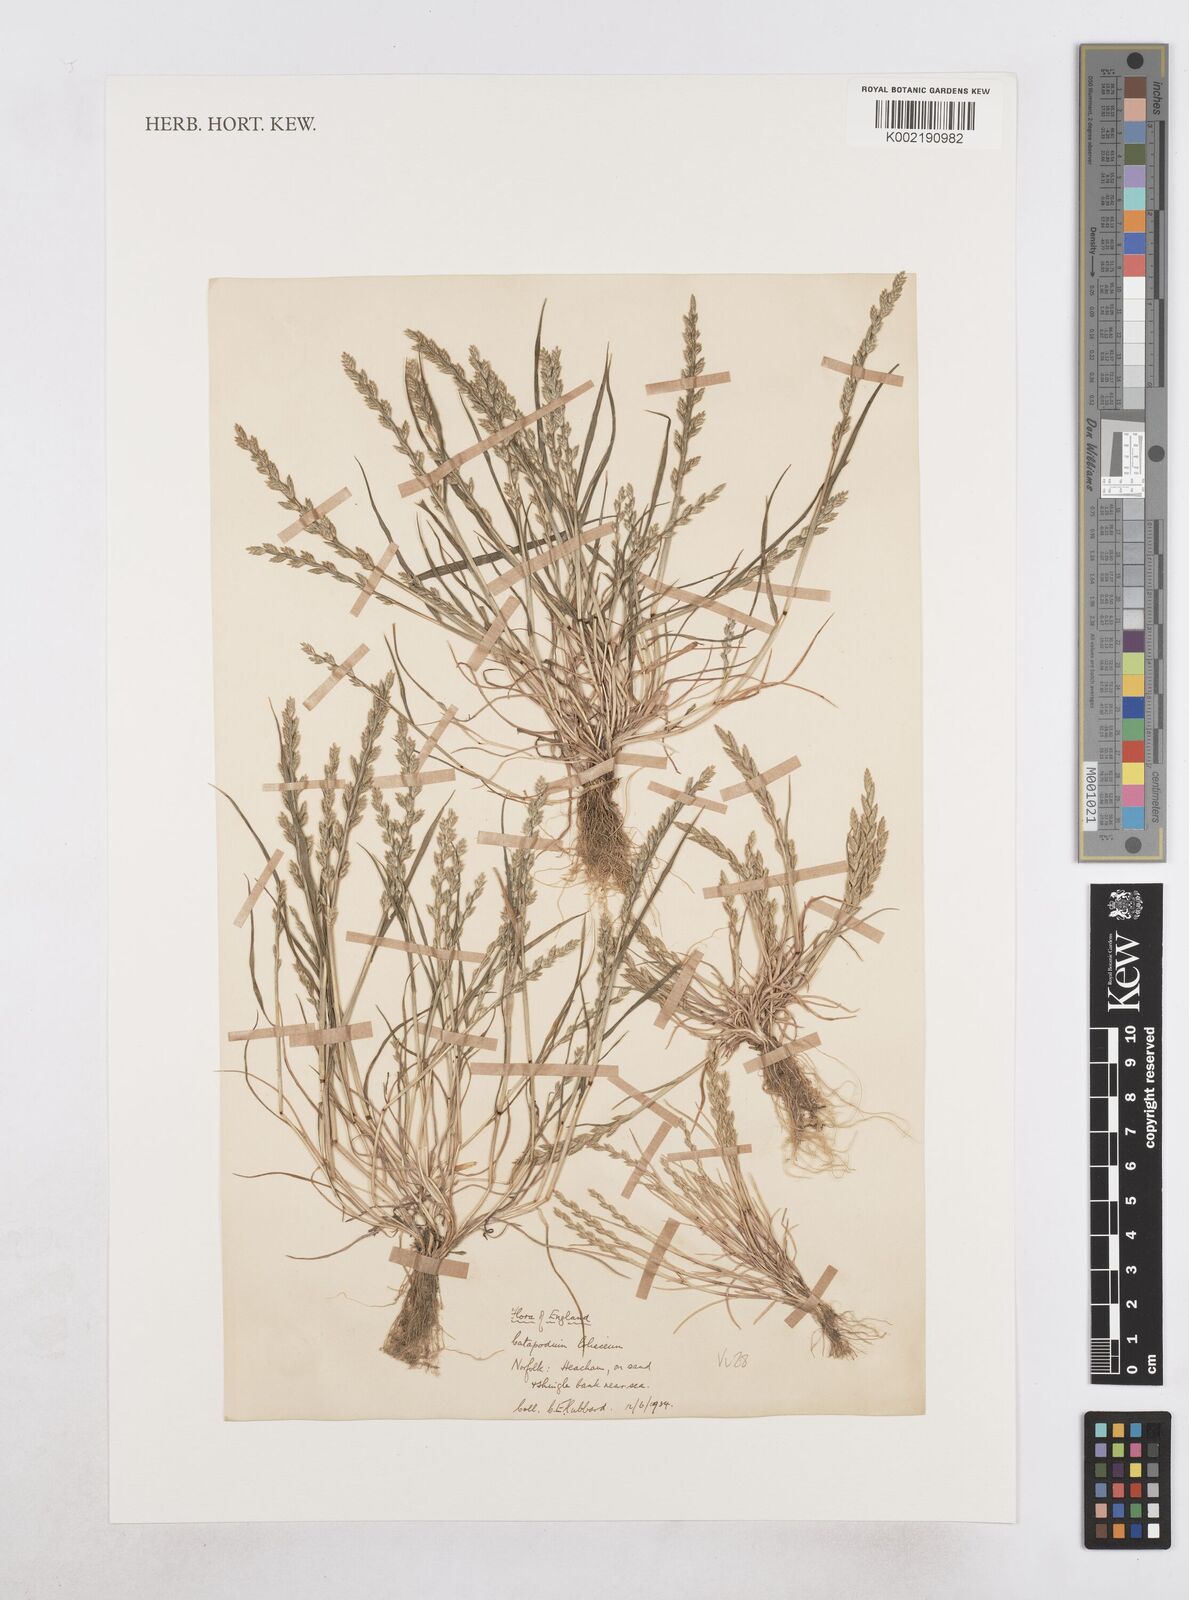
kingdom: Plantae
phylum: Tracheophyta
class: Liliopsida
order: Poales
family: Poaceae
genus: Catapodium
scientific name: Catapodium marinum
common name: Sea fern-grass
